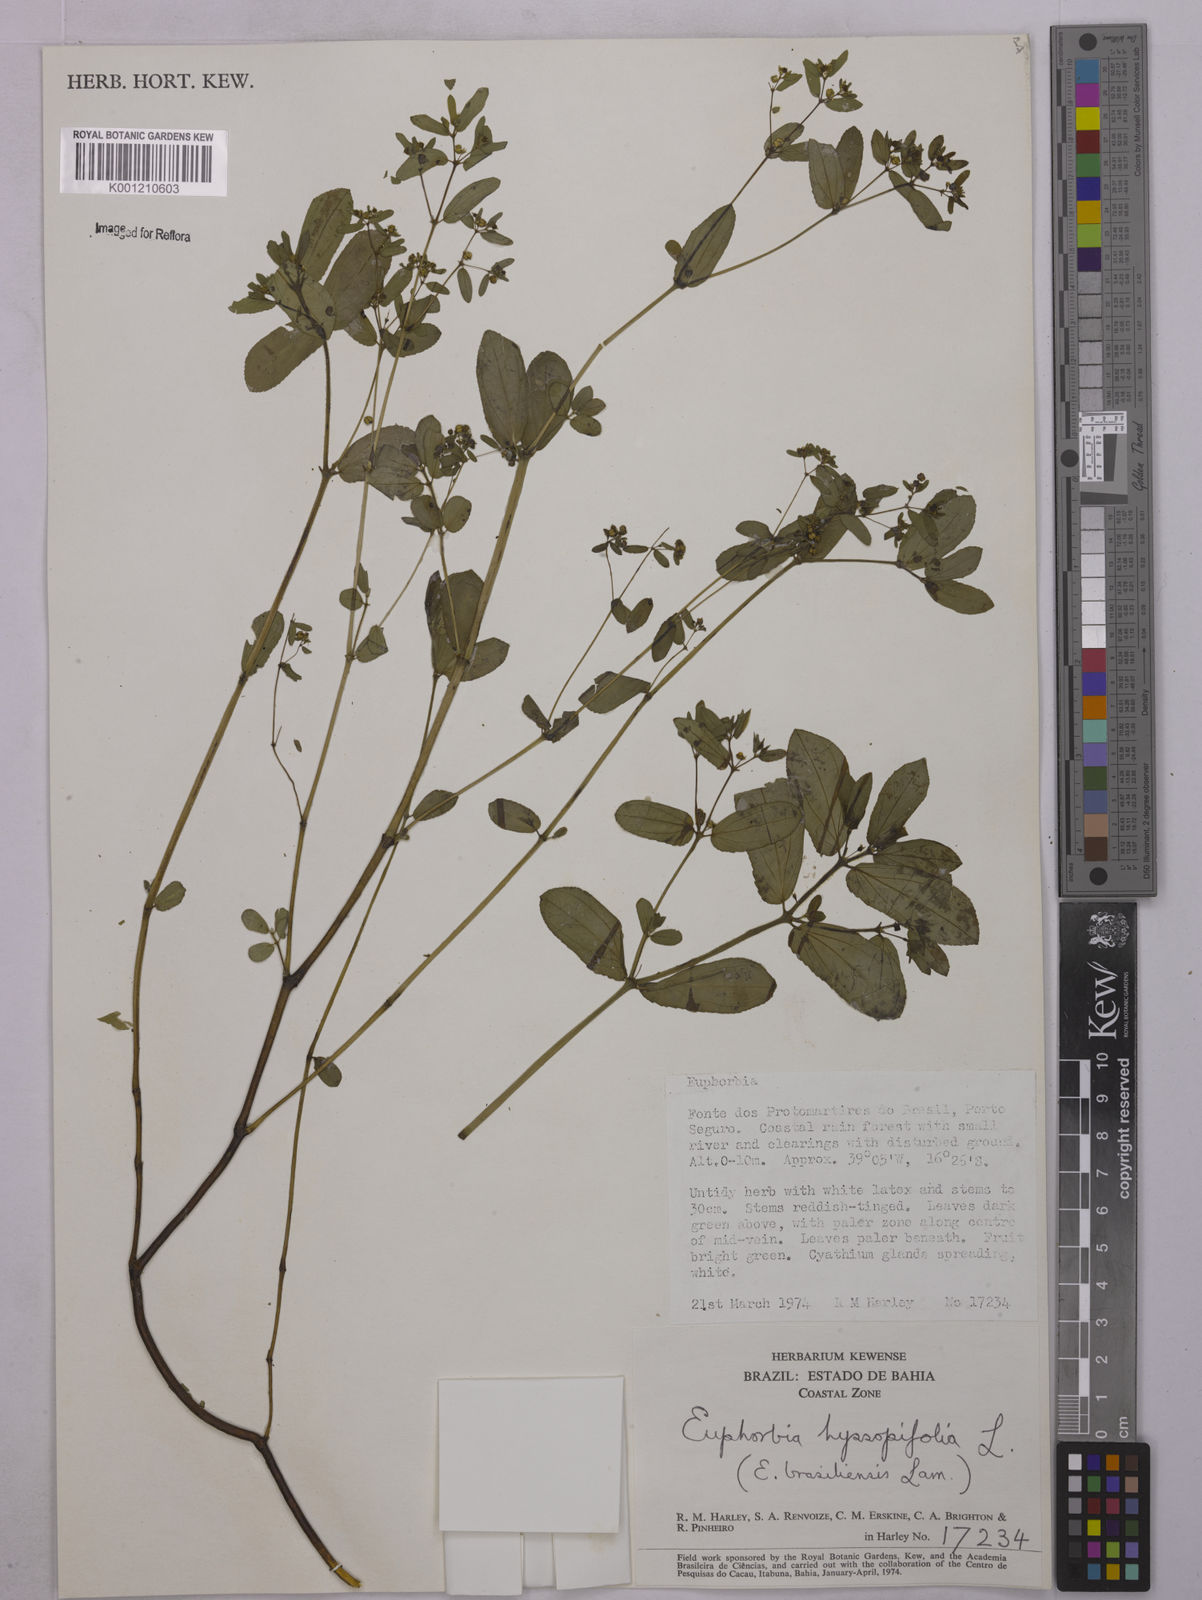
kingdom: Plantae
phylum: Tracheophyta
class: Magnoliopsida
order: Malpighiales
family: Euphorbiaceae
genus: Euphorbia
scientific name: Euphorbia hyssopifolia
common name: Hyssopleaf sandmat
